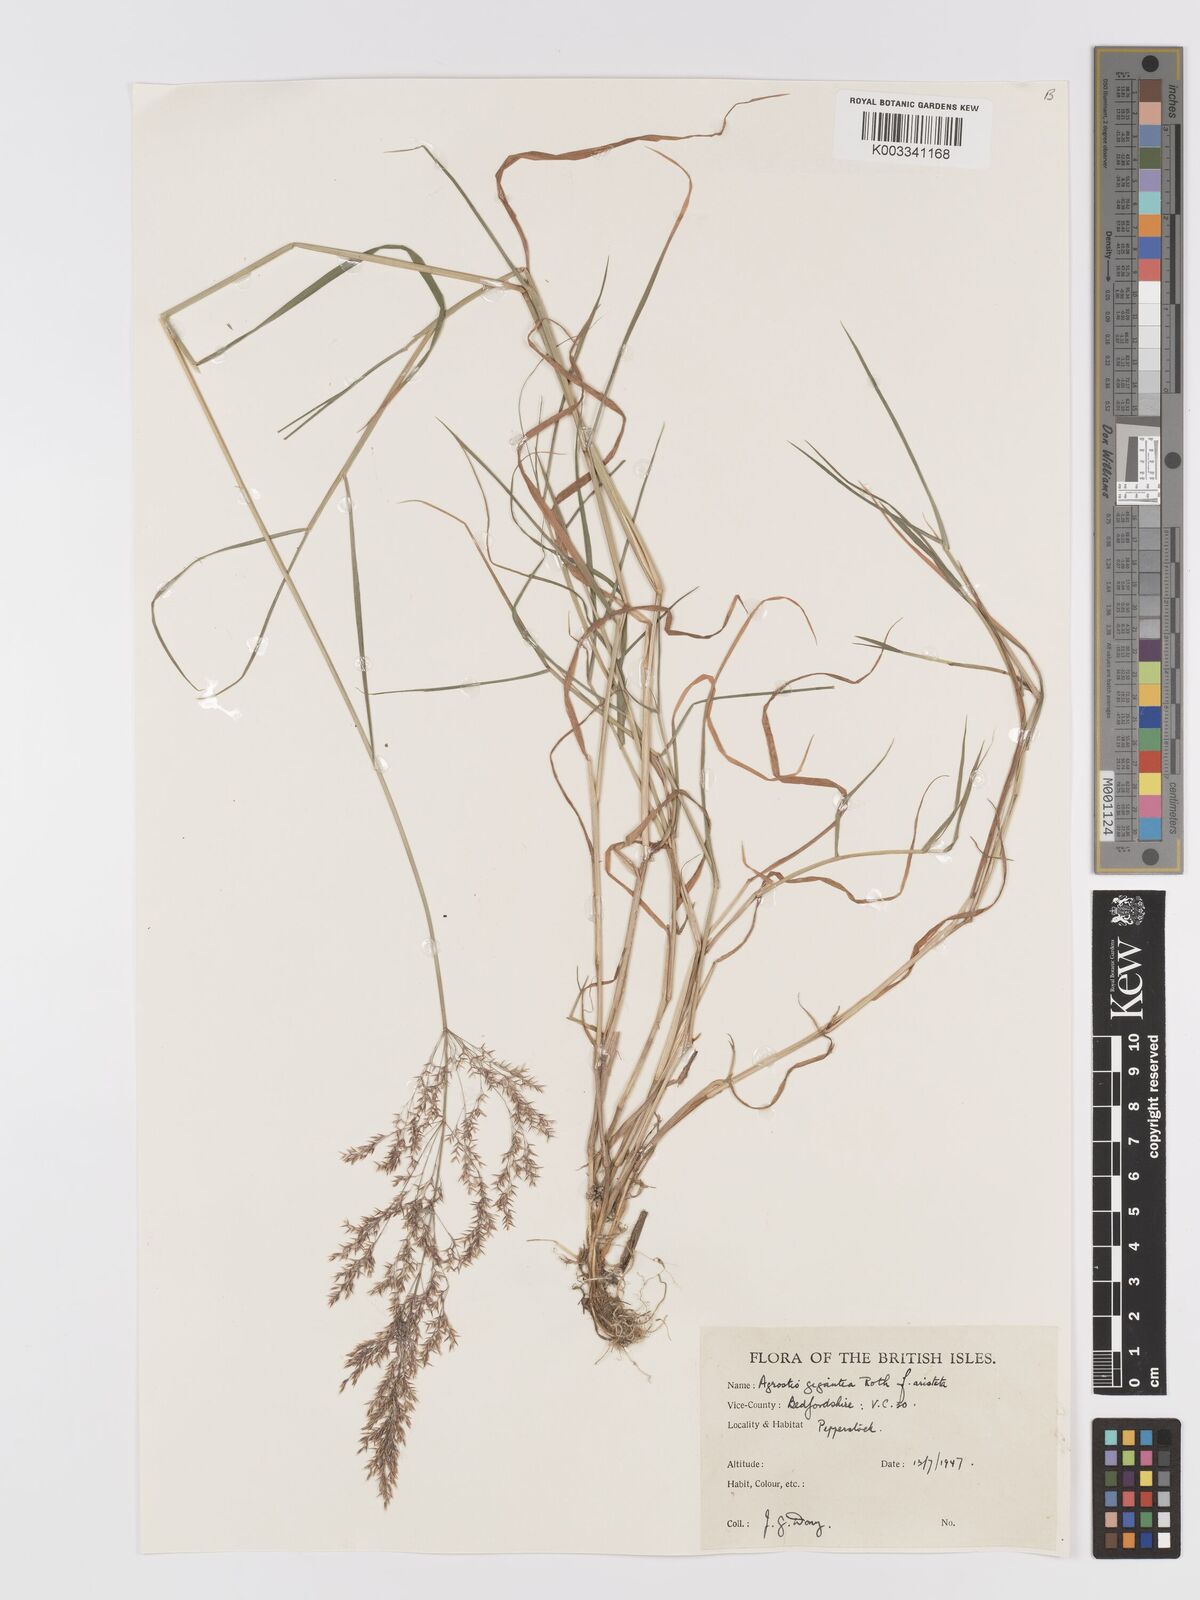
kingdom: Plantae
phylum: Tracheophyta
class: Liliopsida
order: Poales
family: Poaceae
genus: Agrostis
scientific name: Agrostis gigantea
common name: Black bent
